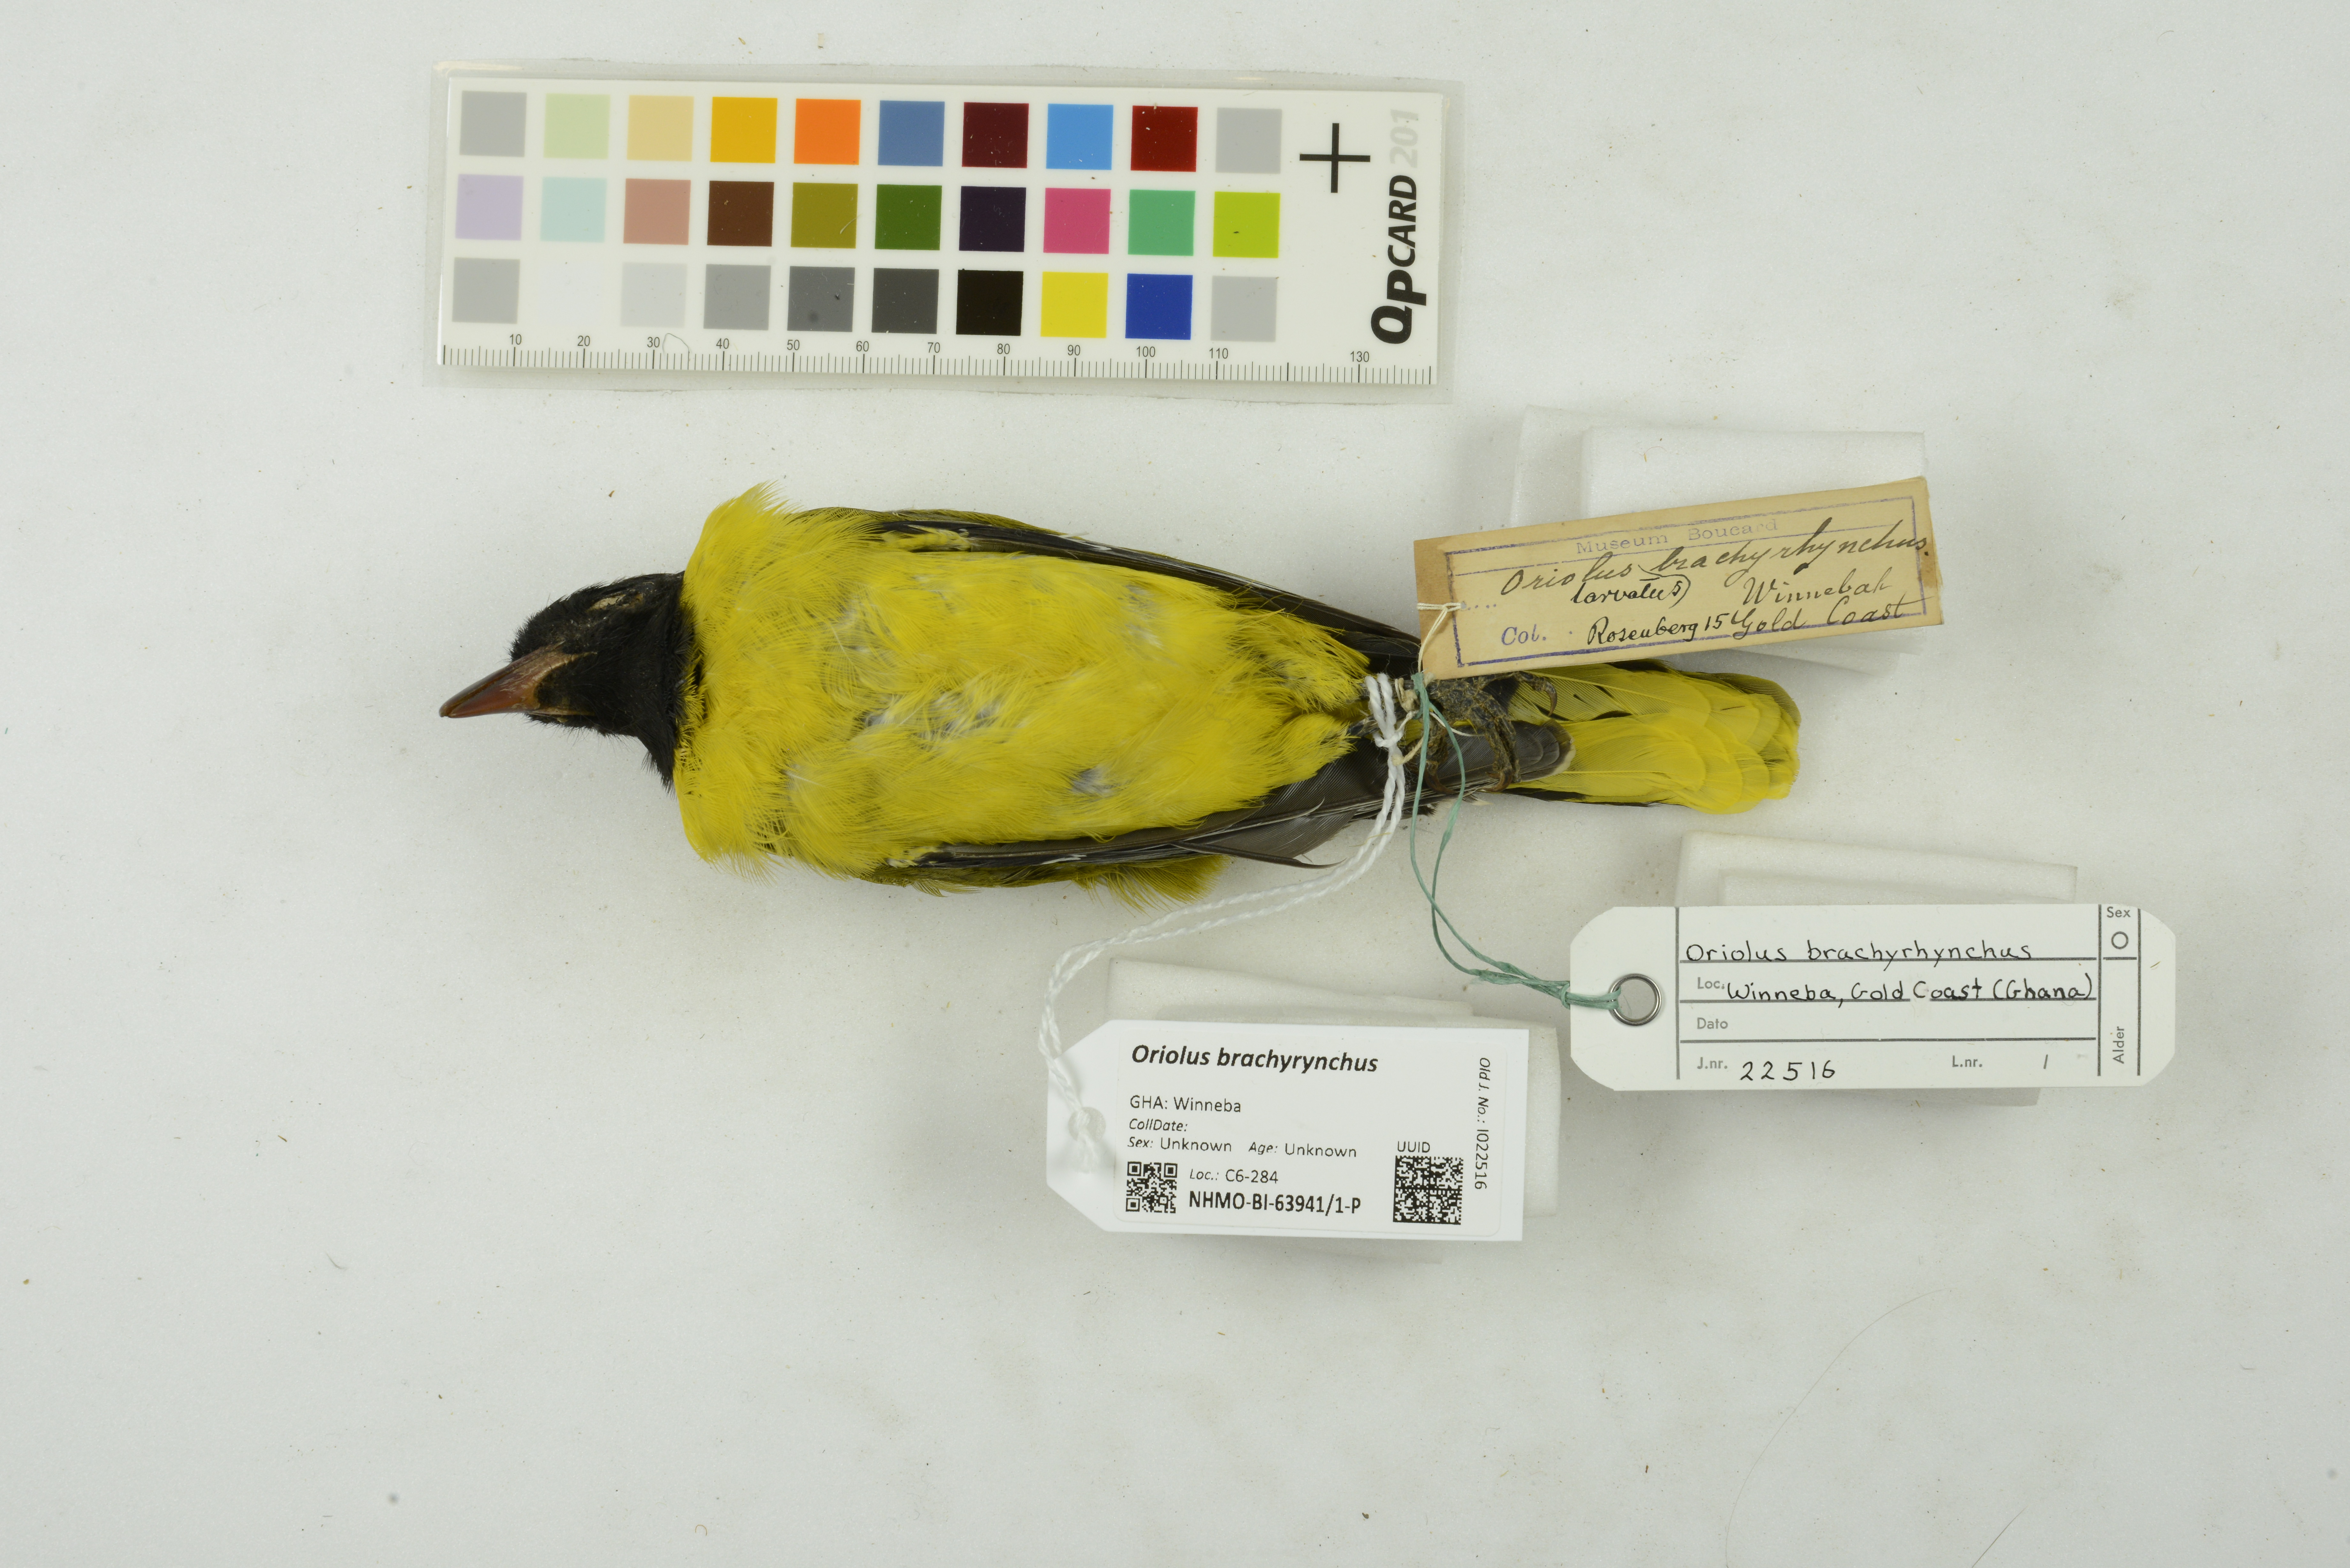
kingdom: Animalia
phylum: Chordata
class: Aves
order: Passeriformes
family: Oriolidae
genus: Oriolus
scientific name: Oriolus brachyrynchus
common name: Western oriole
